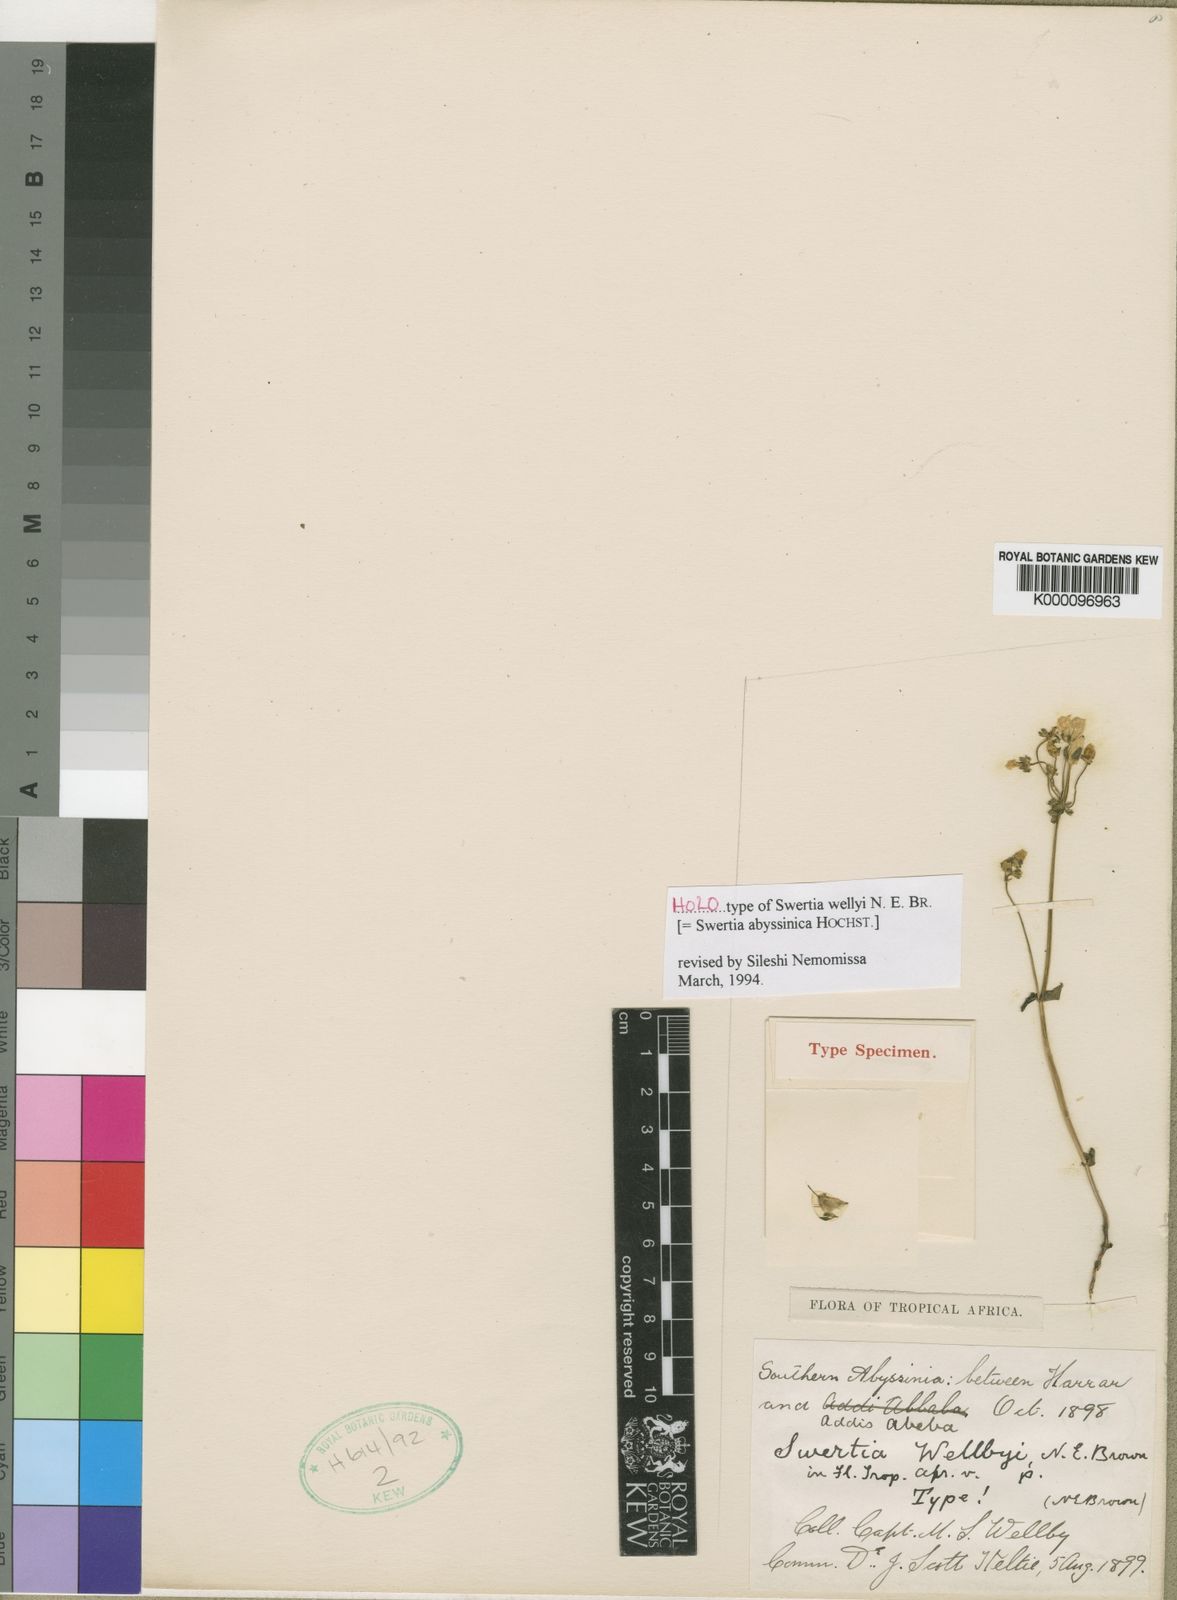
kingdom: Plantae
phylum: Tracheophyta
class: Magnoliopsida
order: Gentianales
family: Gentianaceae
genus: Swertia
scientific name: Swertia
